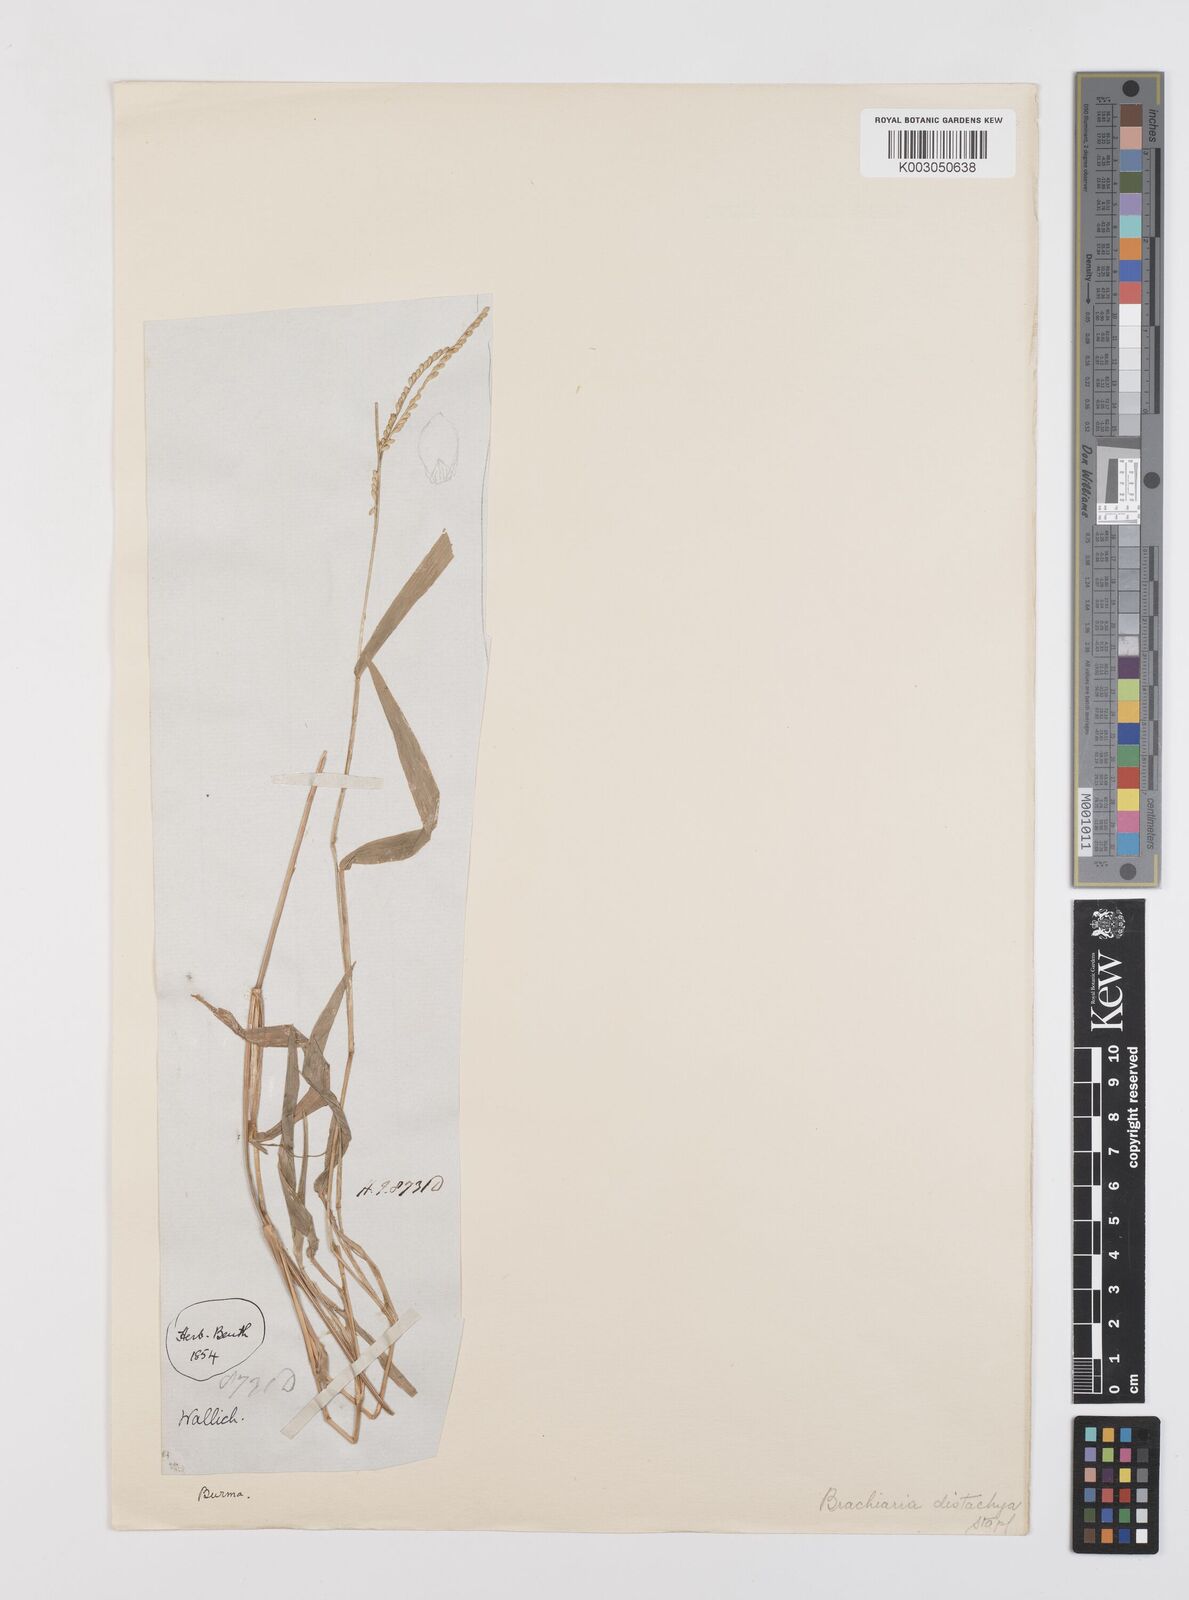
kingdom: Plantae
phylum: Tracheophyta
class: Liliopsida
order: Poales
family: Poaceae
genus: Urochloa
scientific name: Urochloa burmanica
